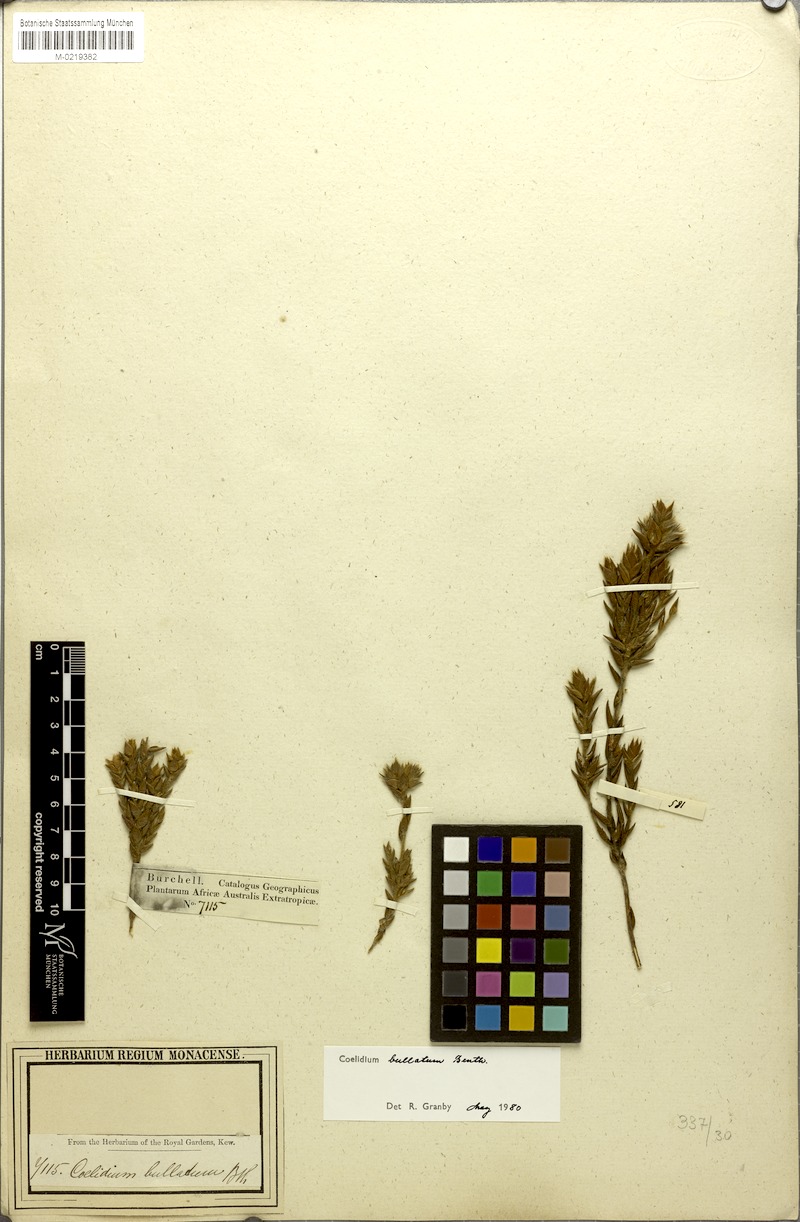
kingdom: Plantae
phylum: Tracheophyta
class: Magnoliopsida
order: Fabales
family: Fabaceae
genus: Amphithalea
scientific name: Amphithalea bullata
